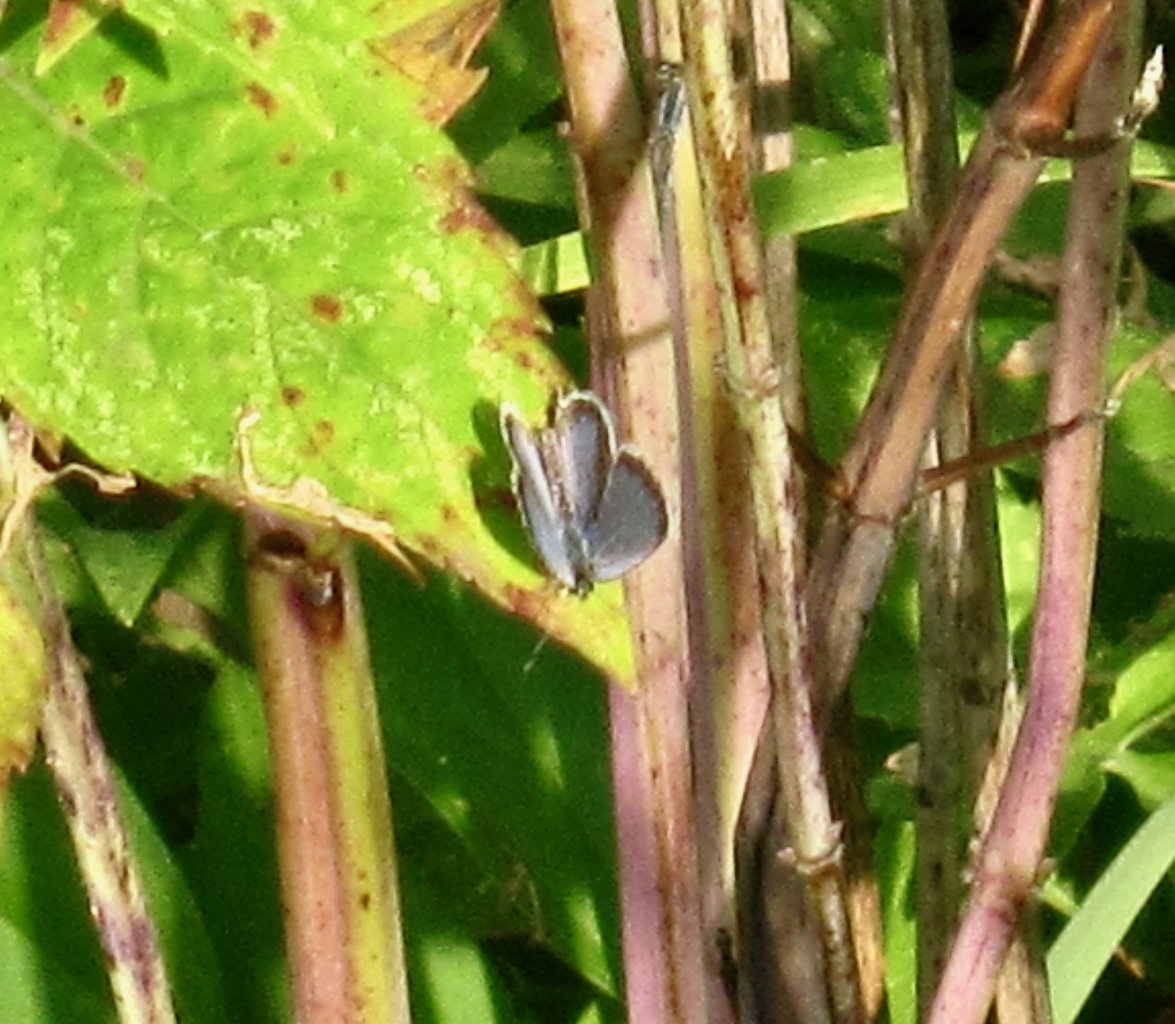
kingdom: Animalia
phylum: Arthropoda
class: Insecta
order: Lepidoptera
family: Lycaenidae
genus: Elkalyce
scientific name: Elkalyce comyntas
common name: Eastern Tailed-Blue
